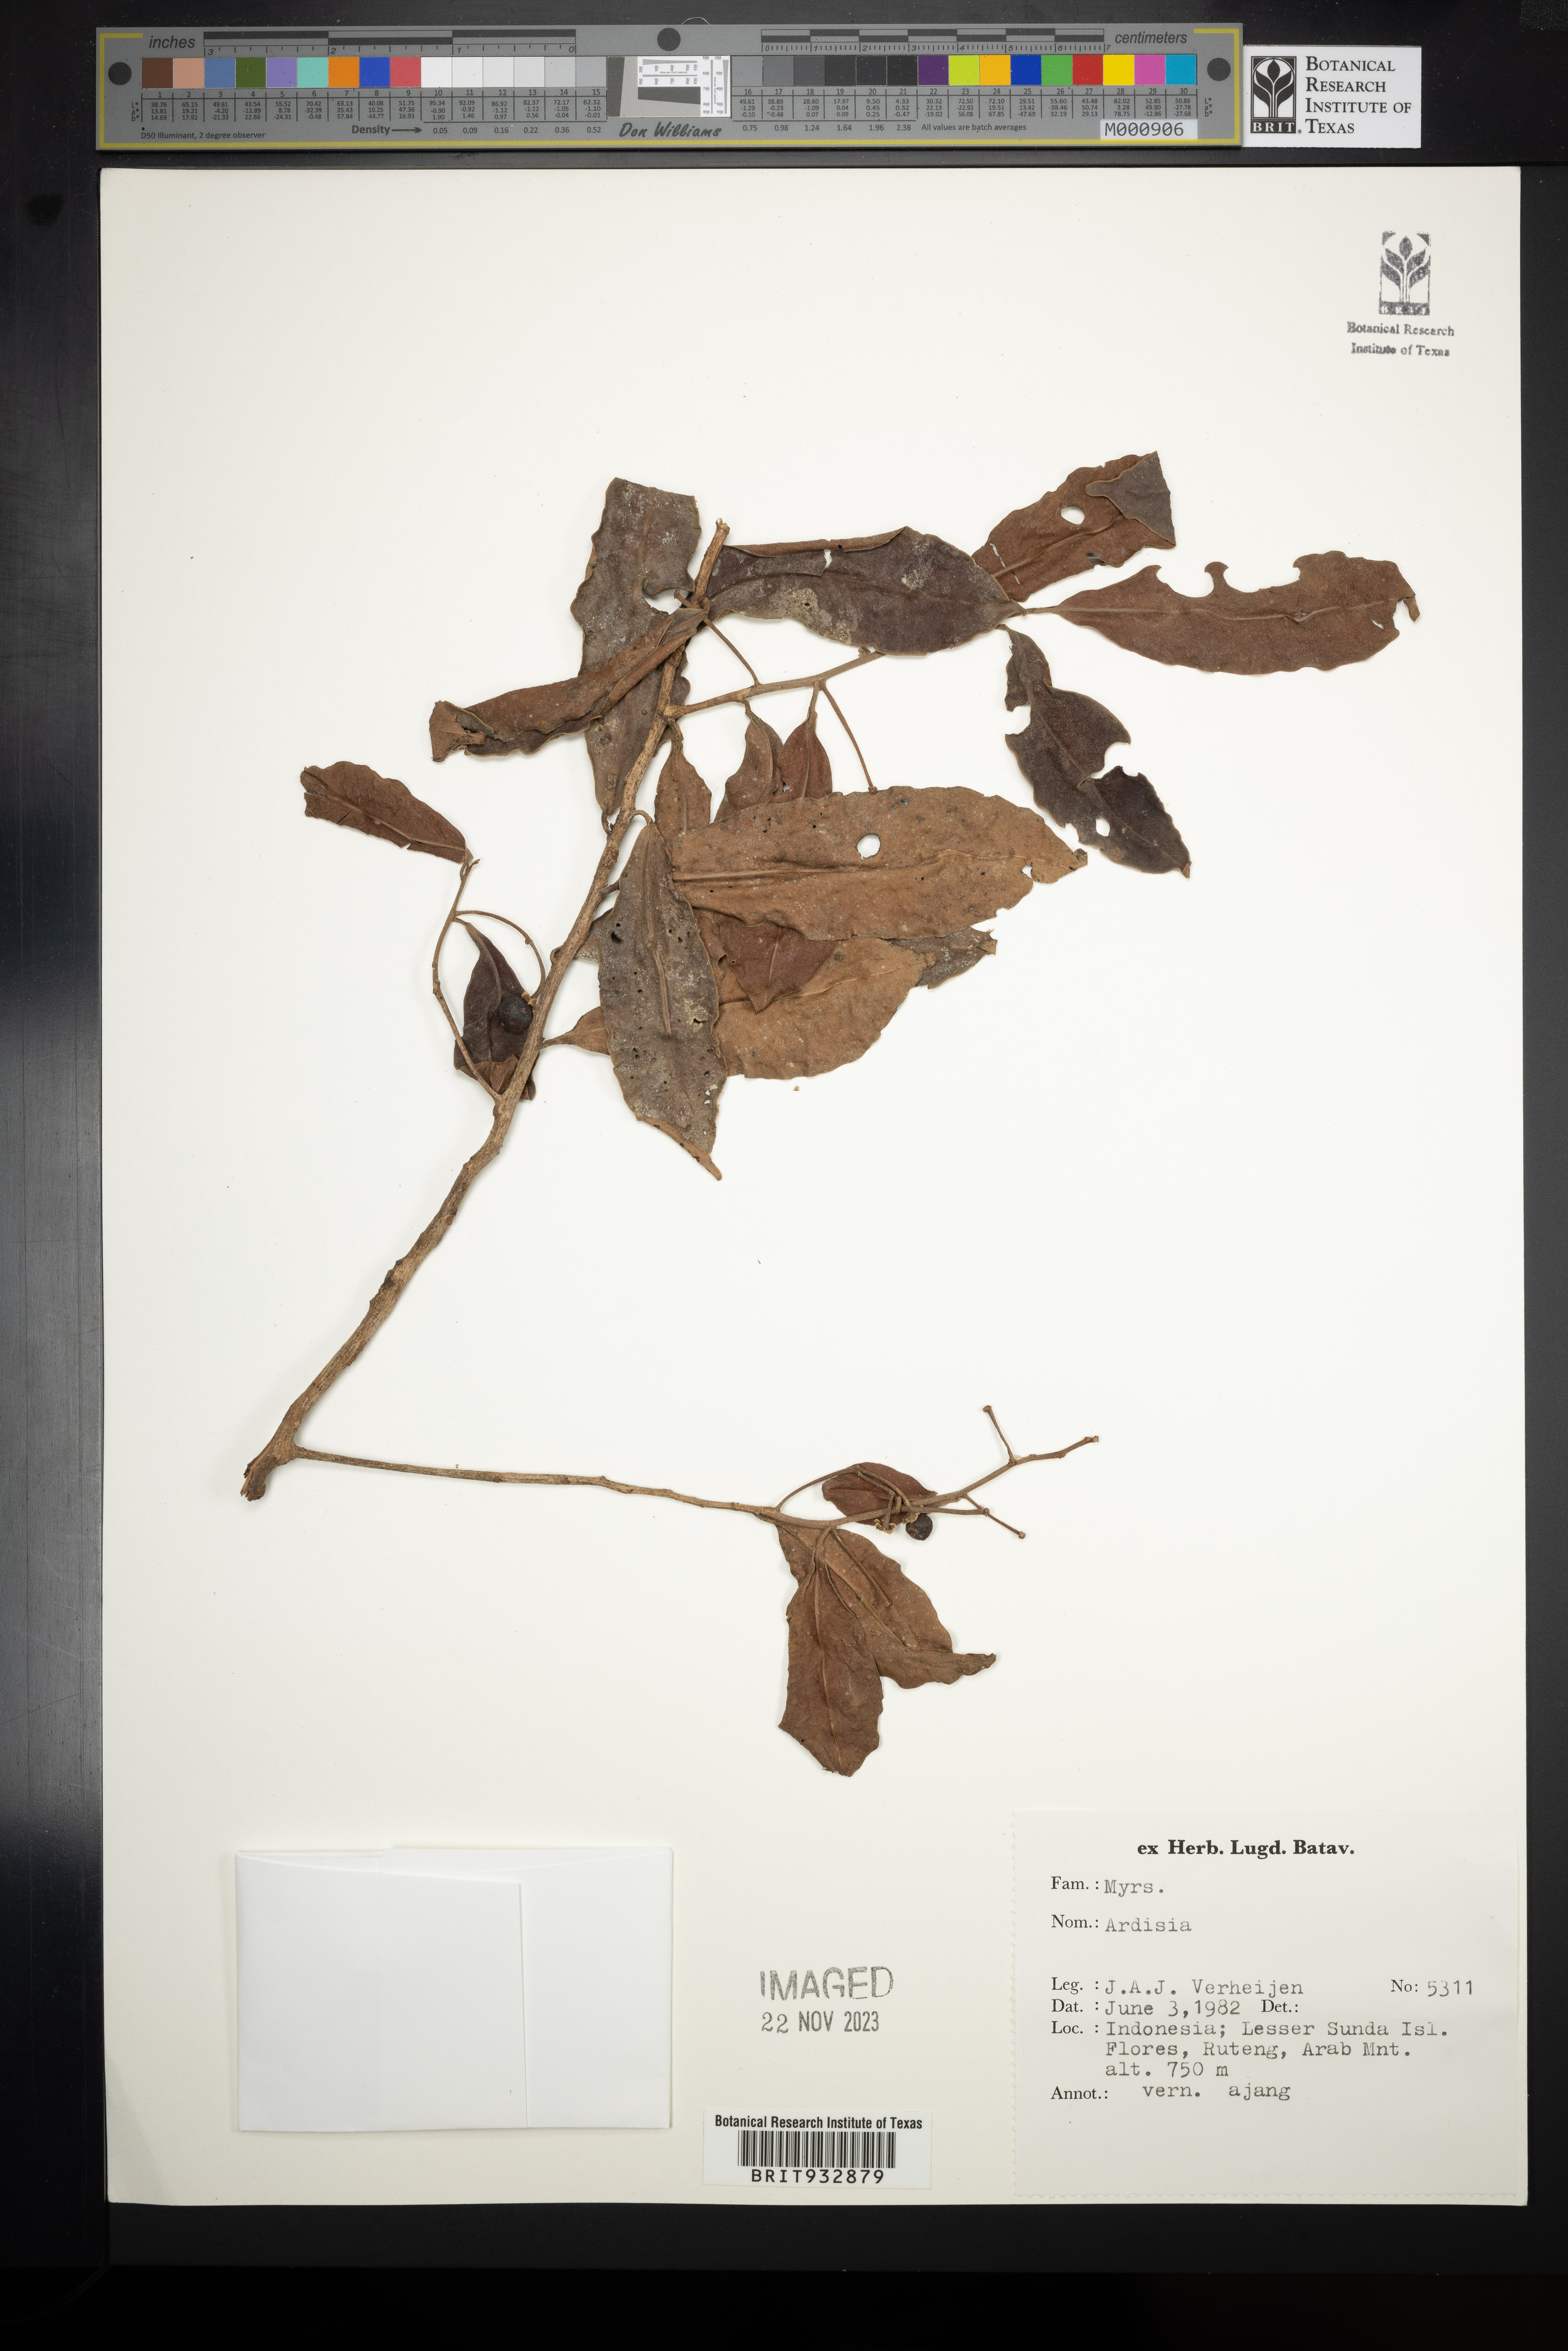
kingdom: Plantae
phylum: Tracheophyta
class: Magnoliopsida
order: Ericales
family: Primulaceae
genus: Ardisia
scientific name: Ardisia
